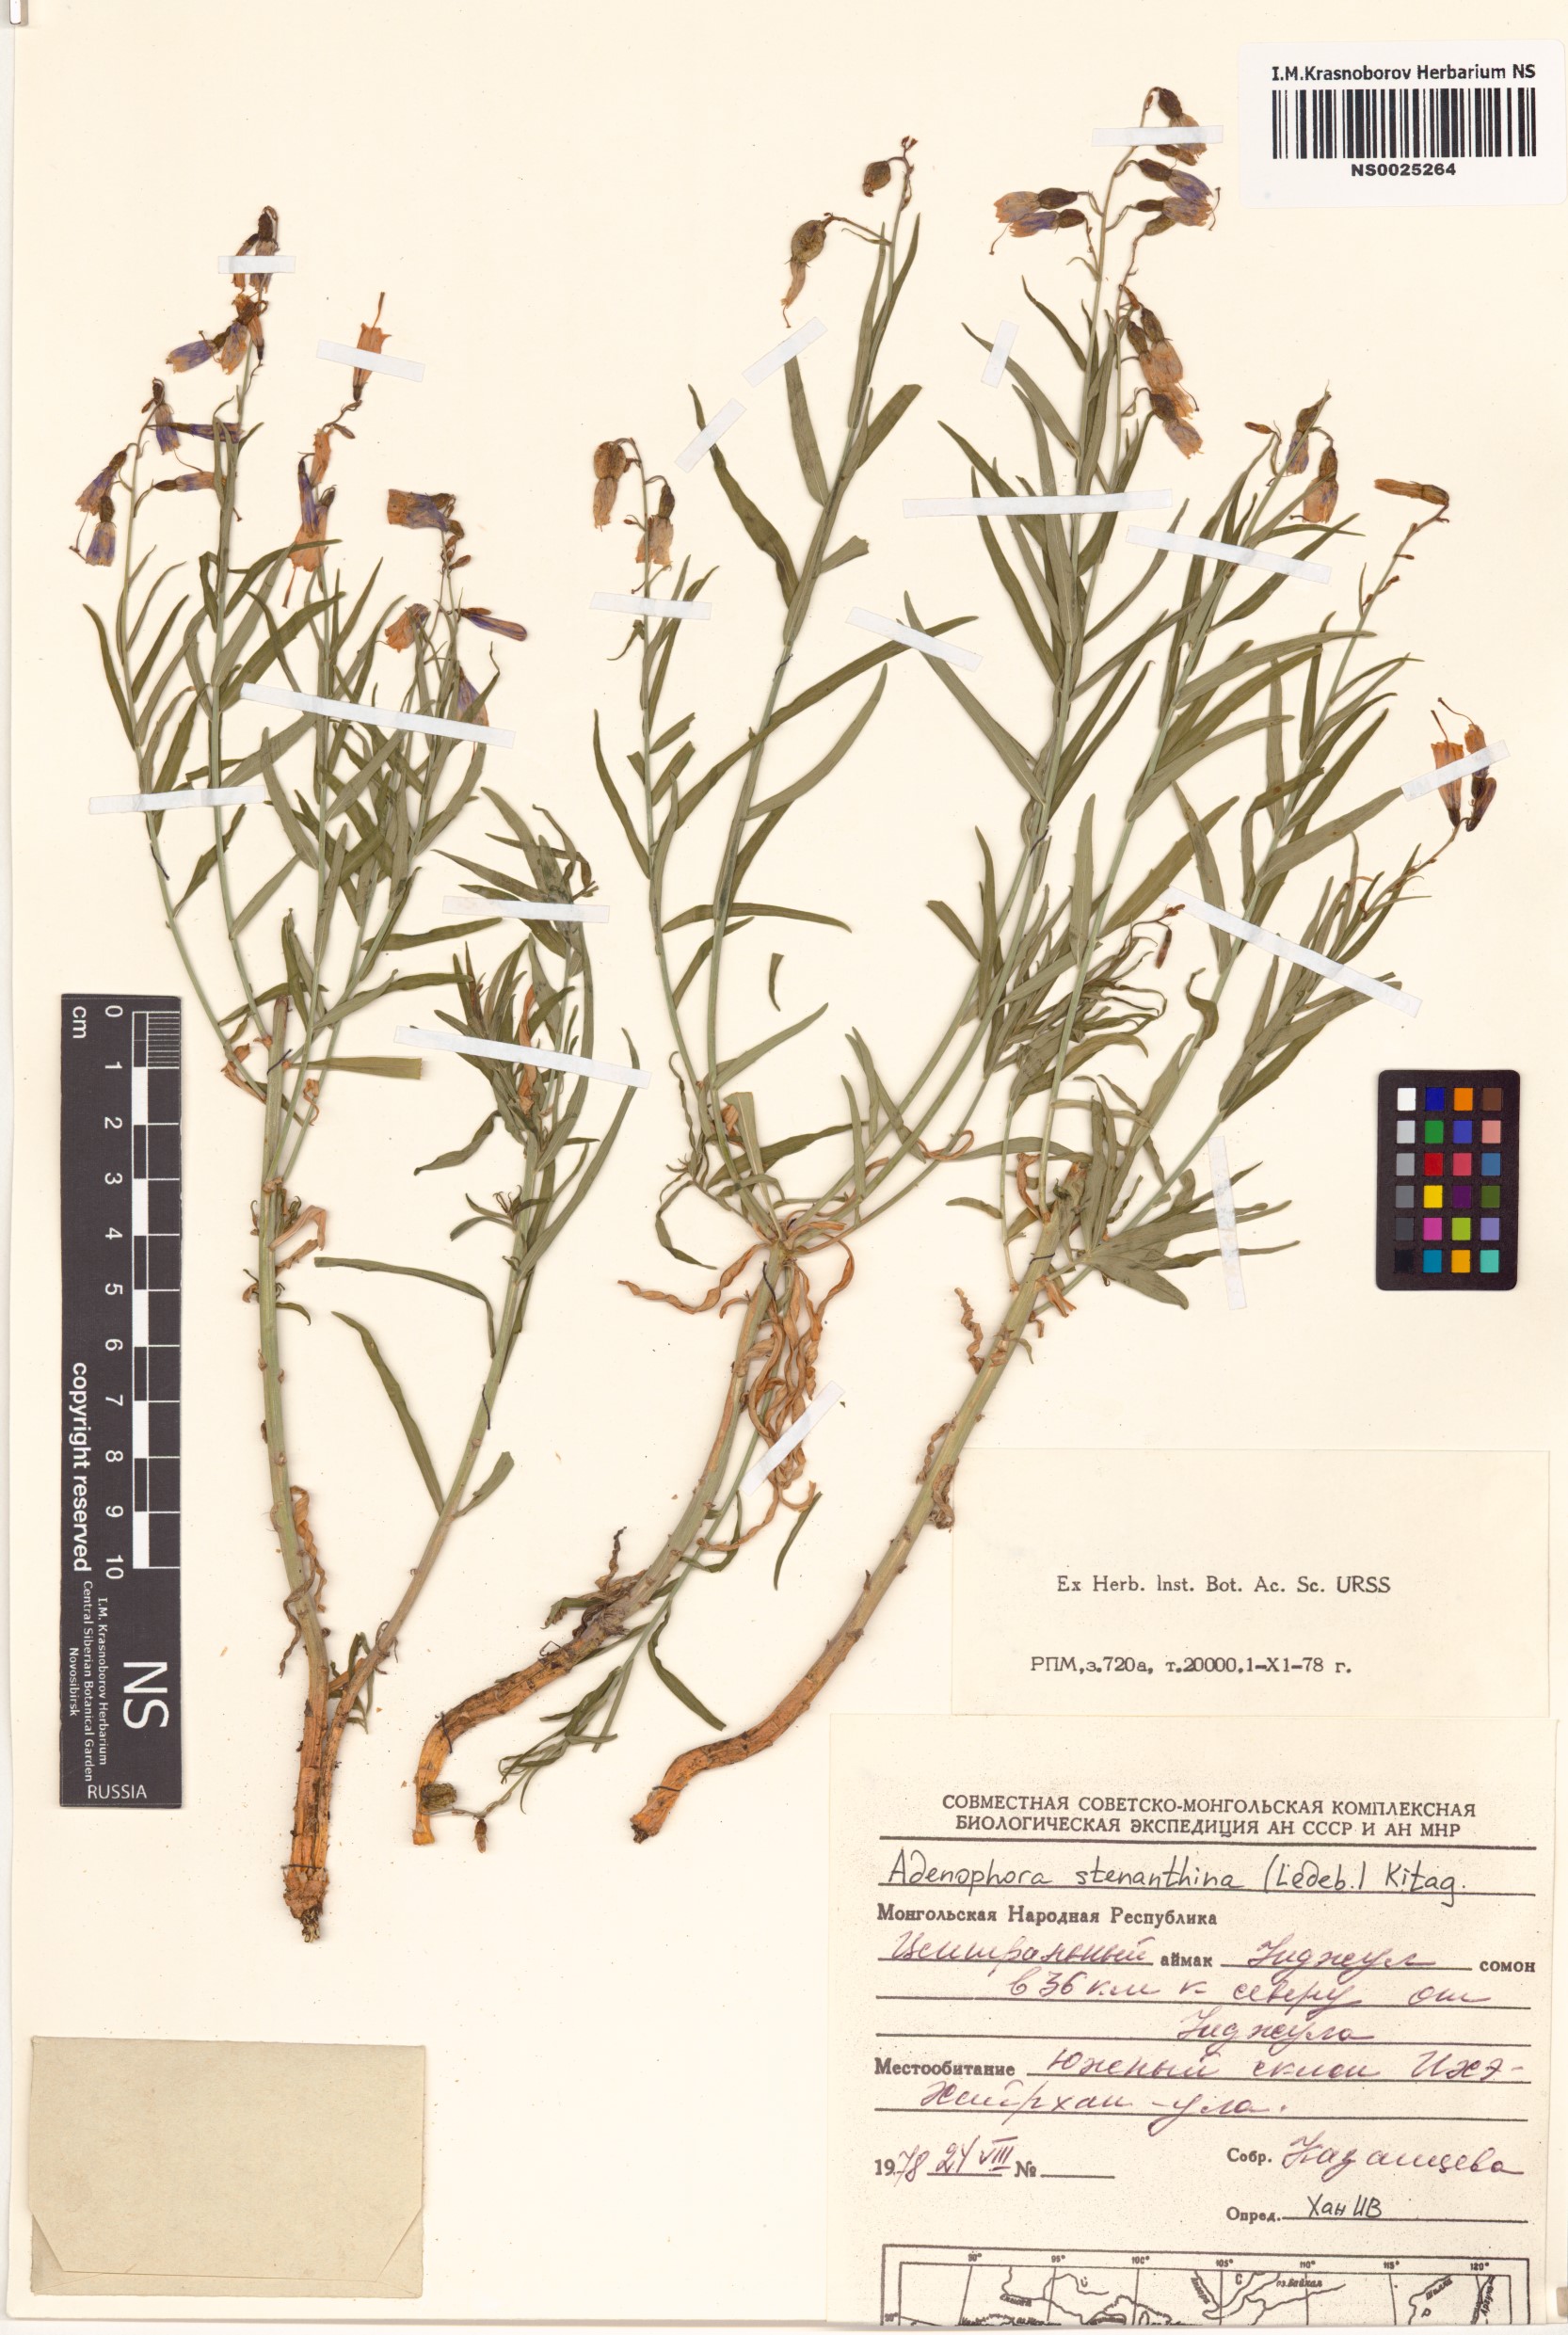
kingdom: Plantae
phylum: Tracheophyta
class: Magnoliopsida
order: Asterales
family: Campanulaceae
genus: Adenophora
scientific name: Adenophora stenanthina
